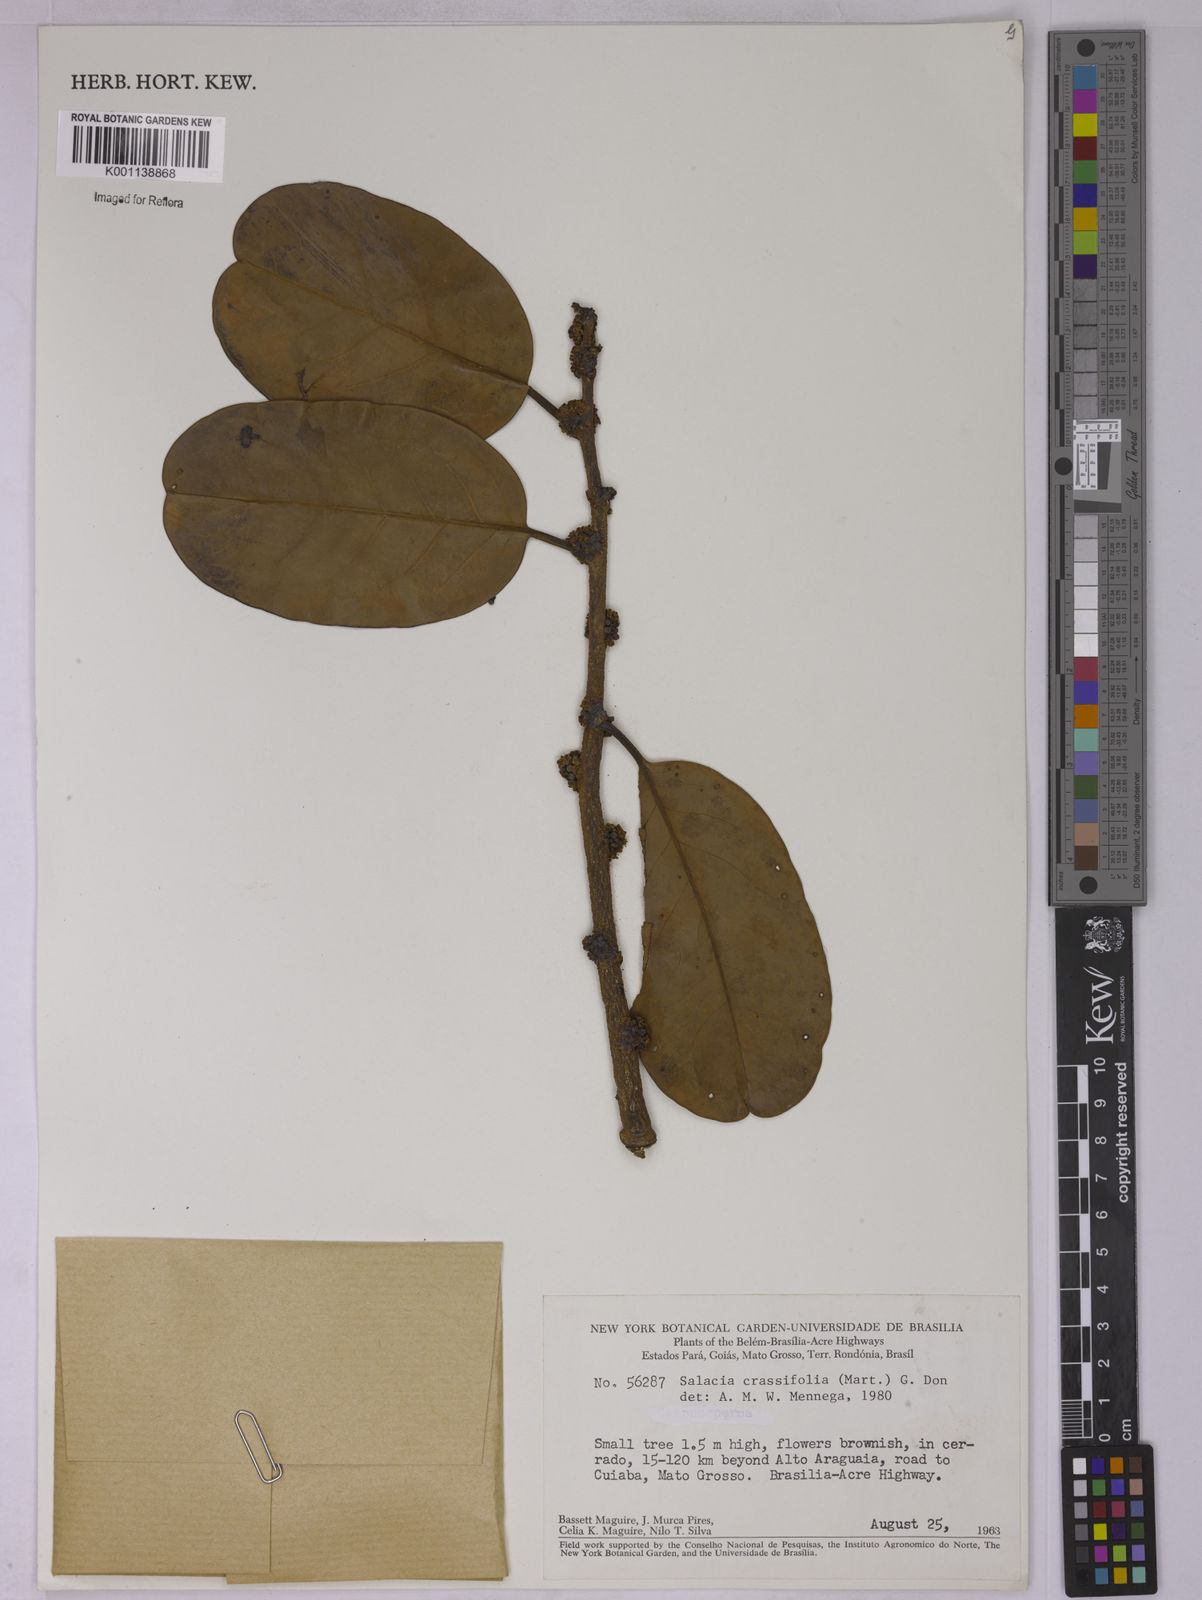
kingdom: Plantae
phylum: Tracheophyta
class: Magnoliopsida
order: Celastrales
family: Celastraceae
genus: Salacia
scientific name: Salacia crassifolia
